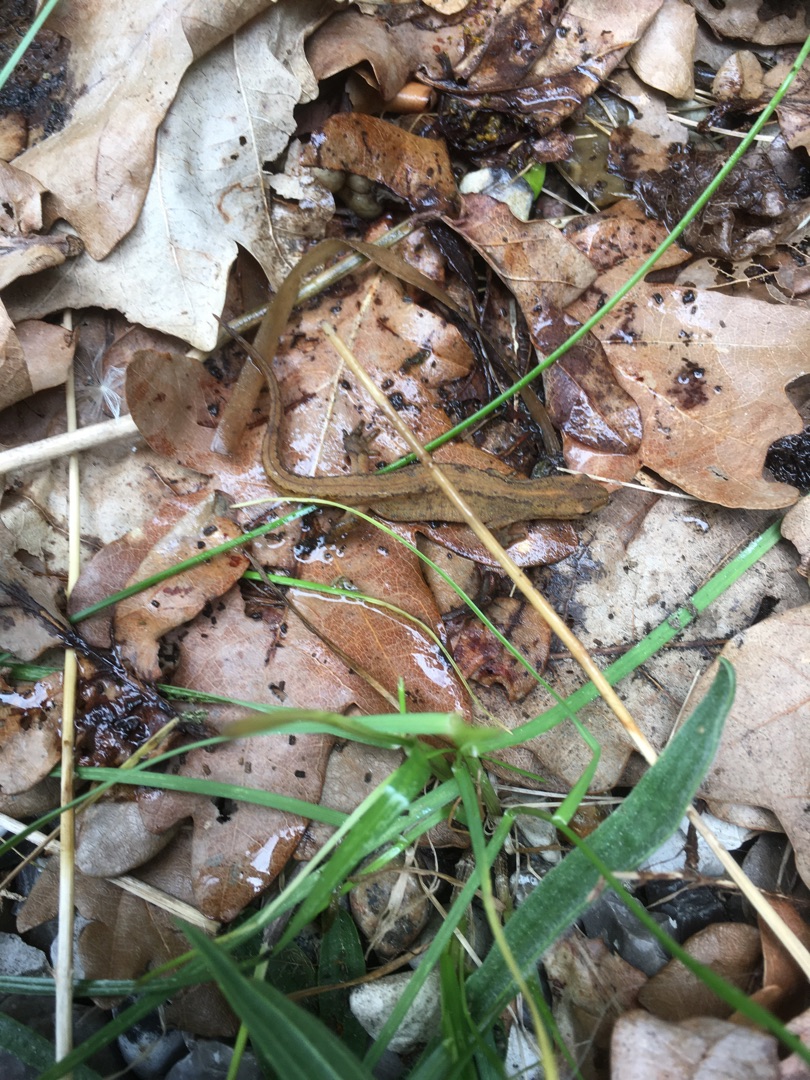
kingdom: Animalia
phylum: Chordata
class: Amphibia
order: Caudata
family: Salamandridae
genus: Lissotriton
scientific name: Lissotriton vulgaris
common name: Lille vandsalamander
